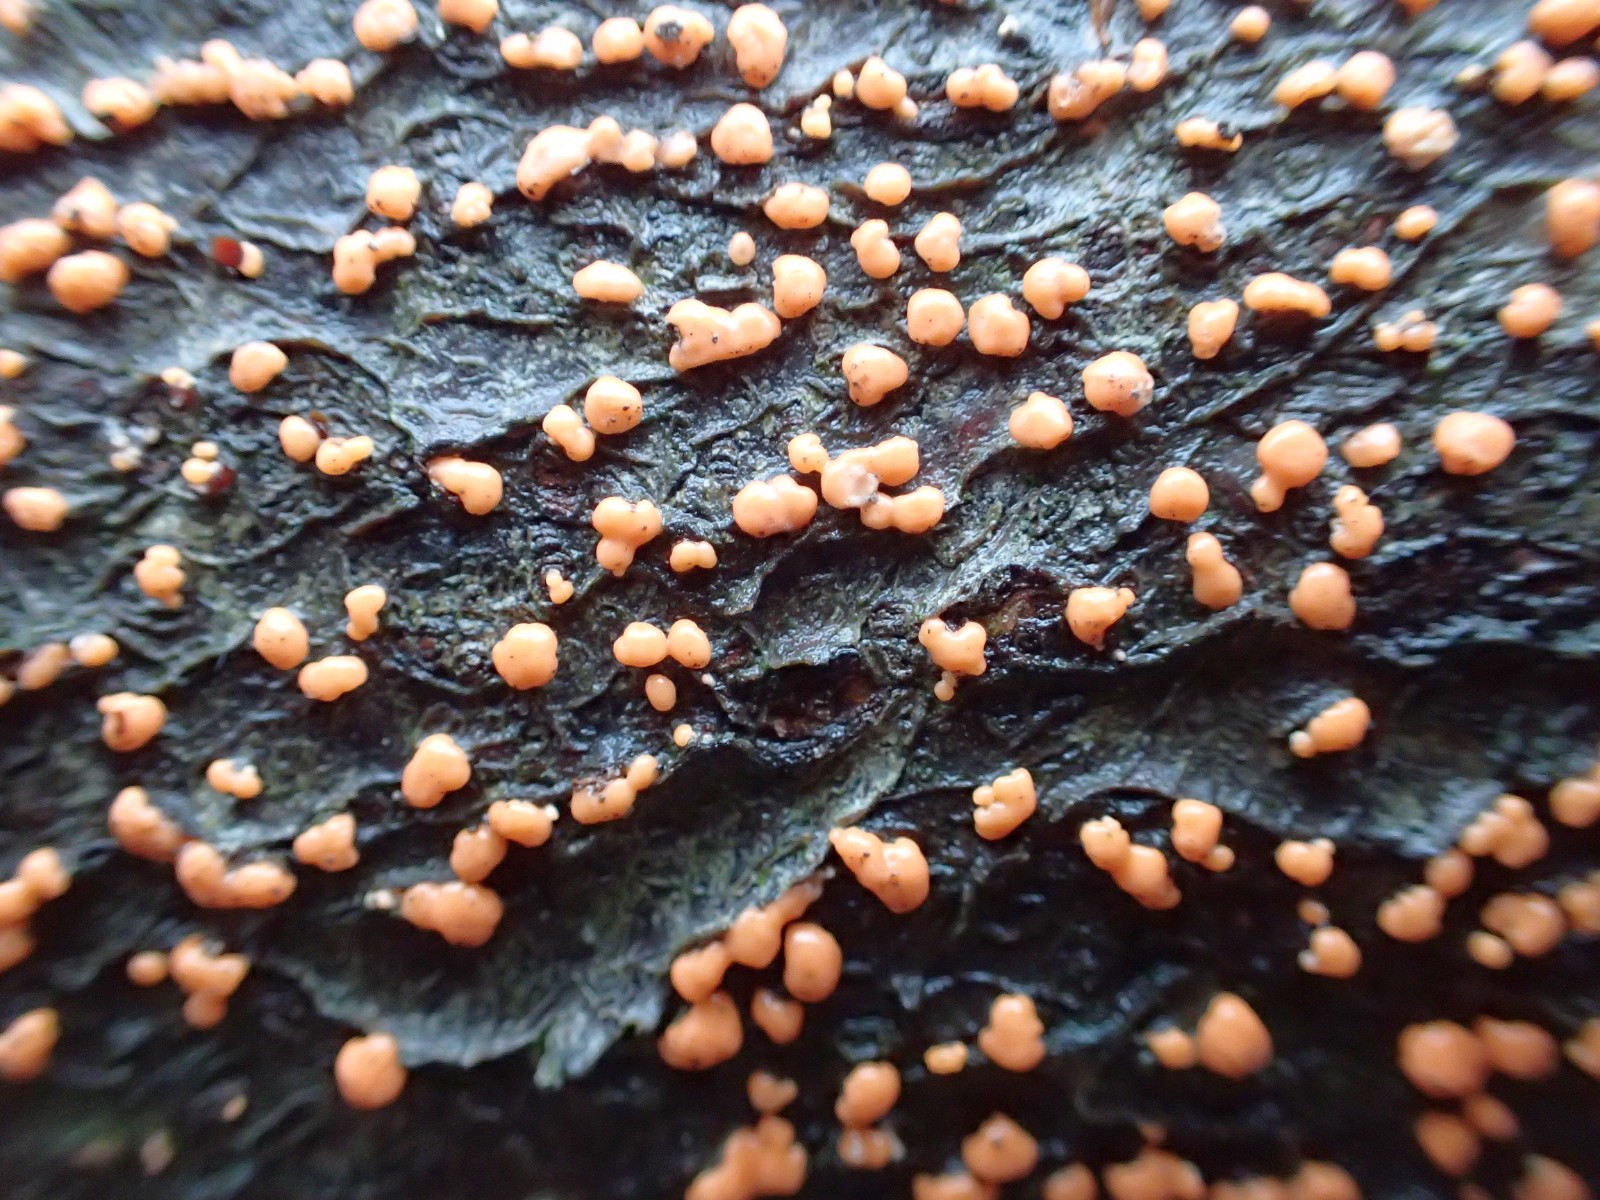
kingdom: Fungi
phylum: Ascomycota
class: Sordariomycetes
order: Hypocreales
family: Nectriaceae
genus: Nectria
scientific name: Nectria cinnabarina
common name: almindelig cinnobersvamp
